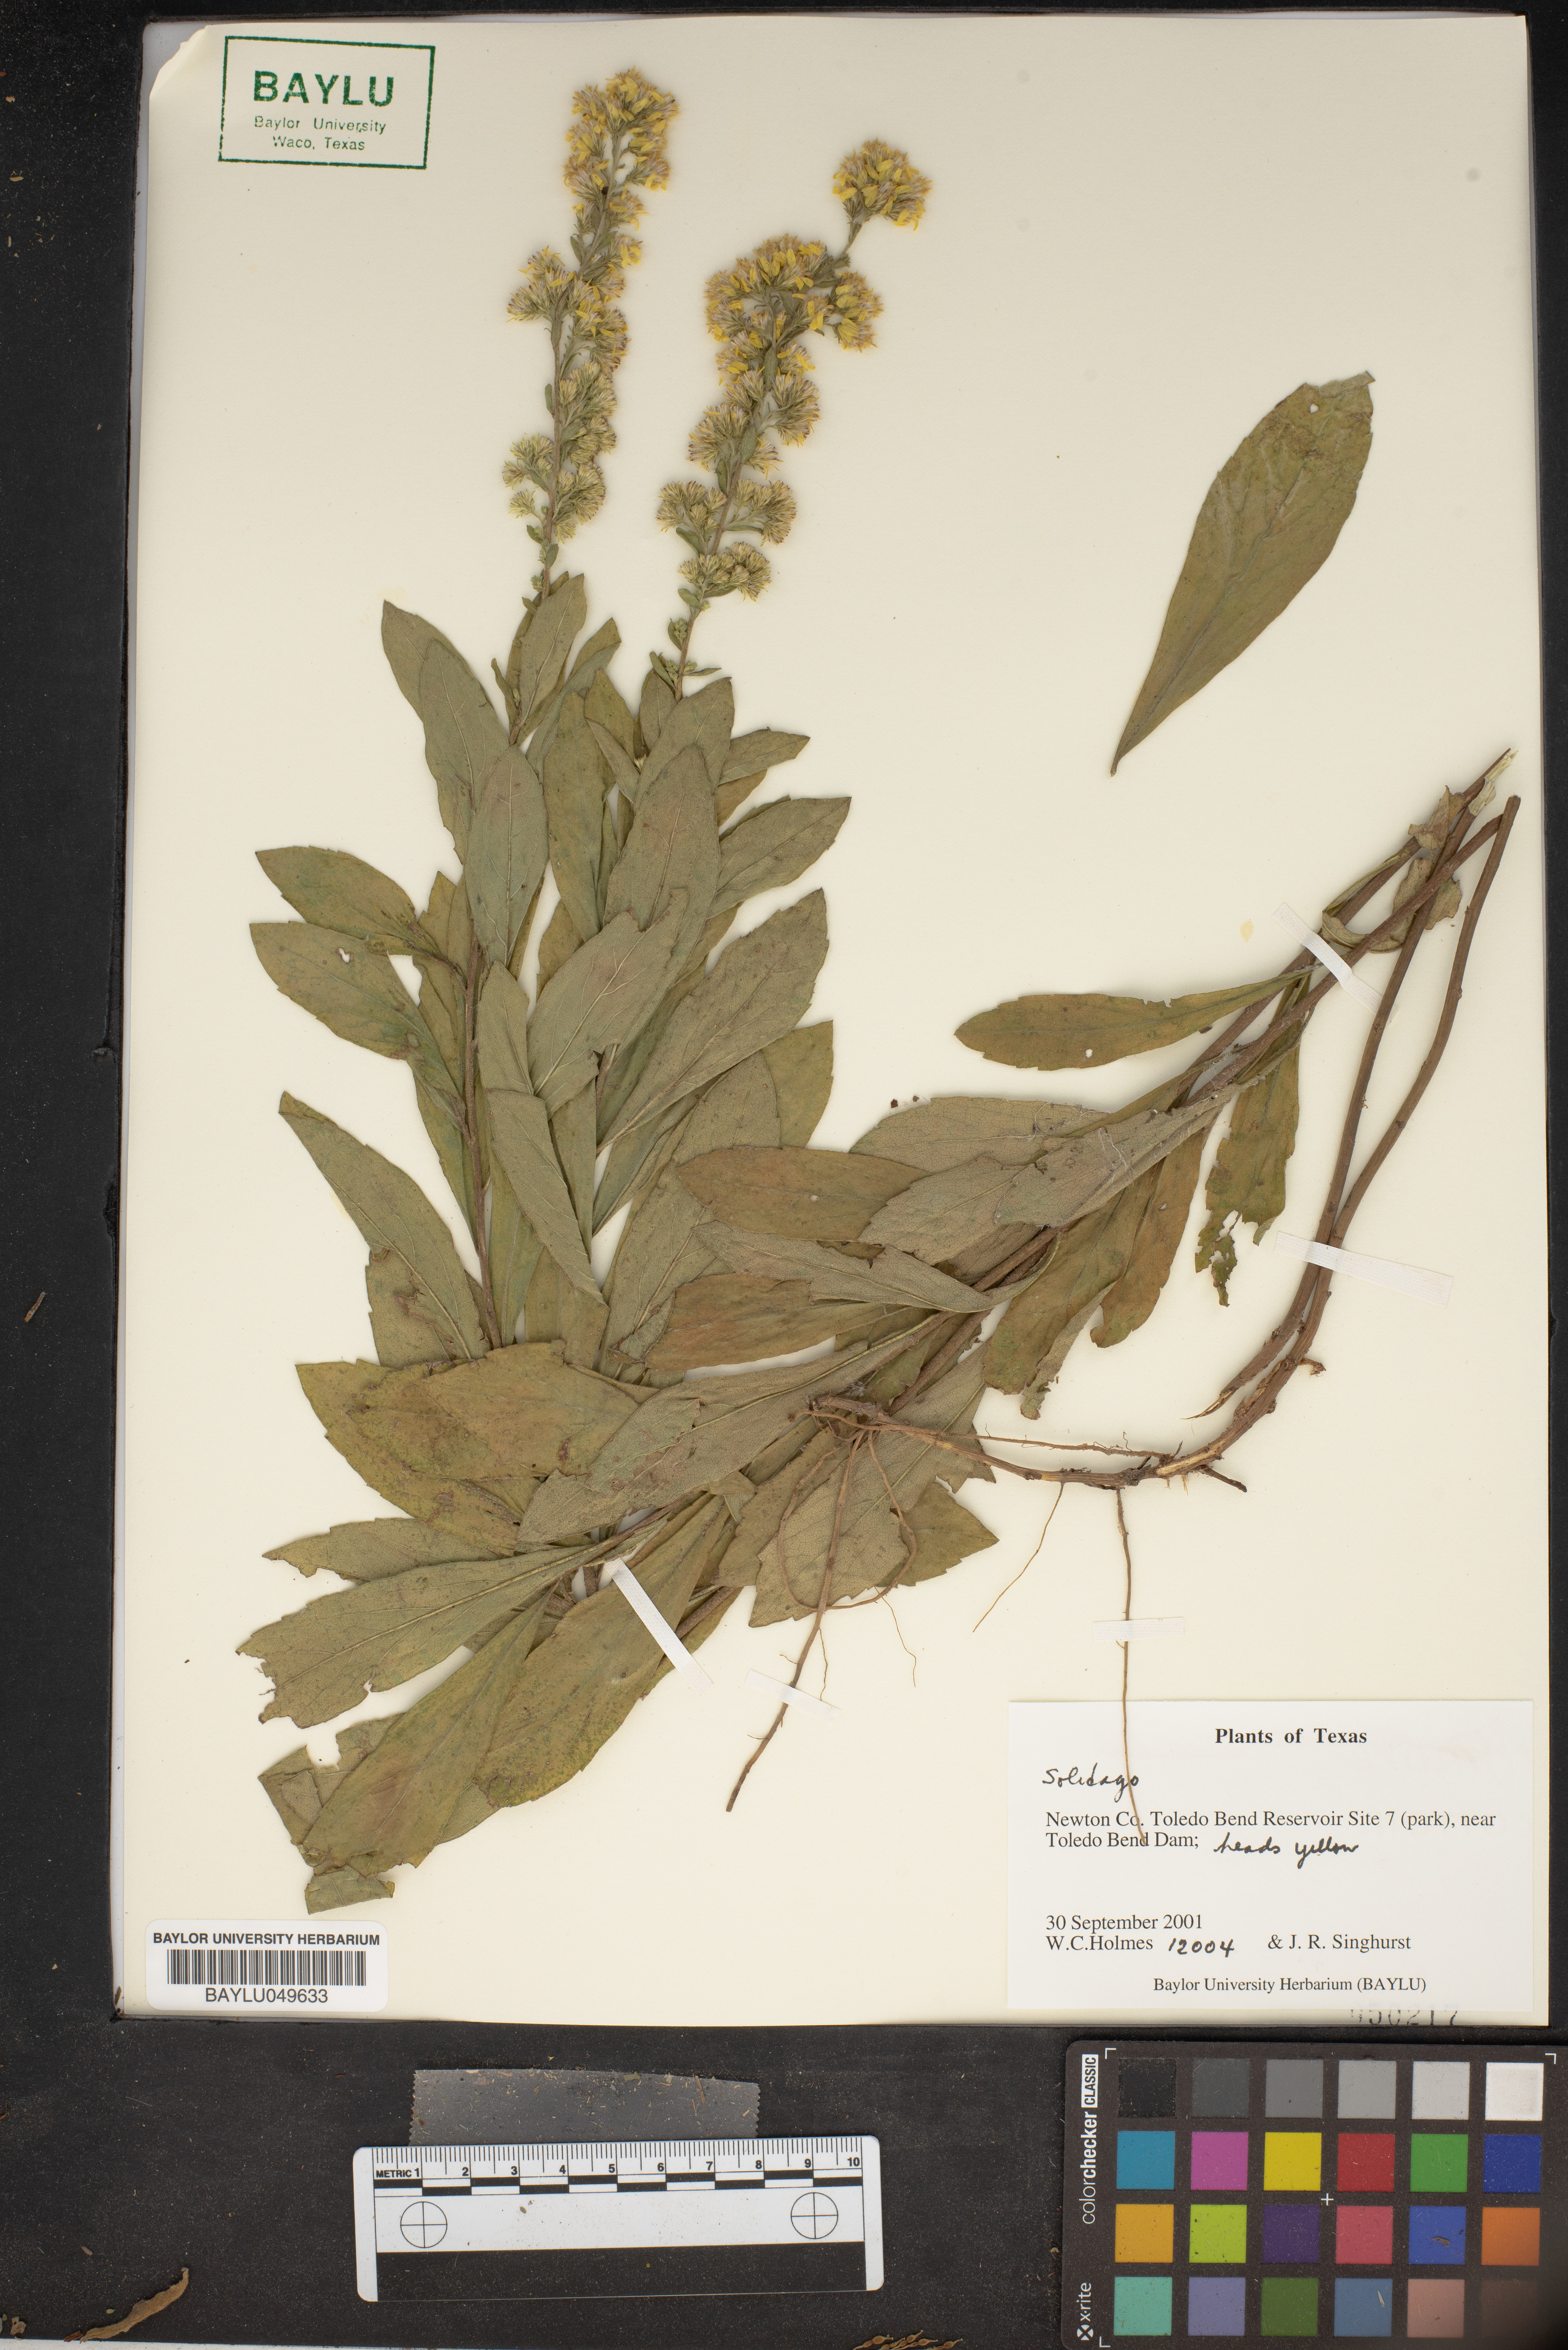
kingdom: Plantae
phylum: Tracheophyta
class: Magnoliopsida
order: Asterales
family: Asteraceae
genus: Solidago
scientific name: Solidago
